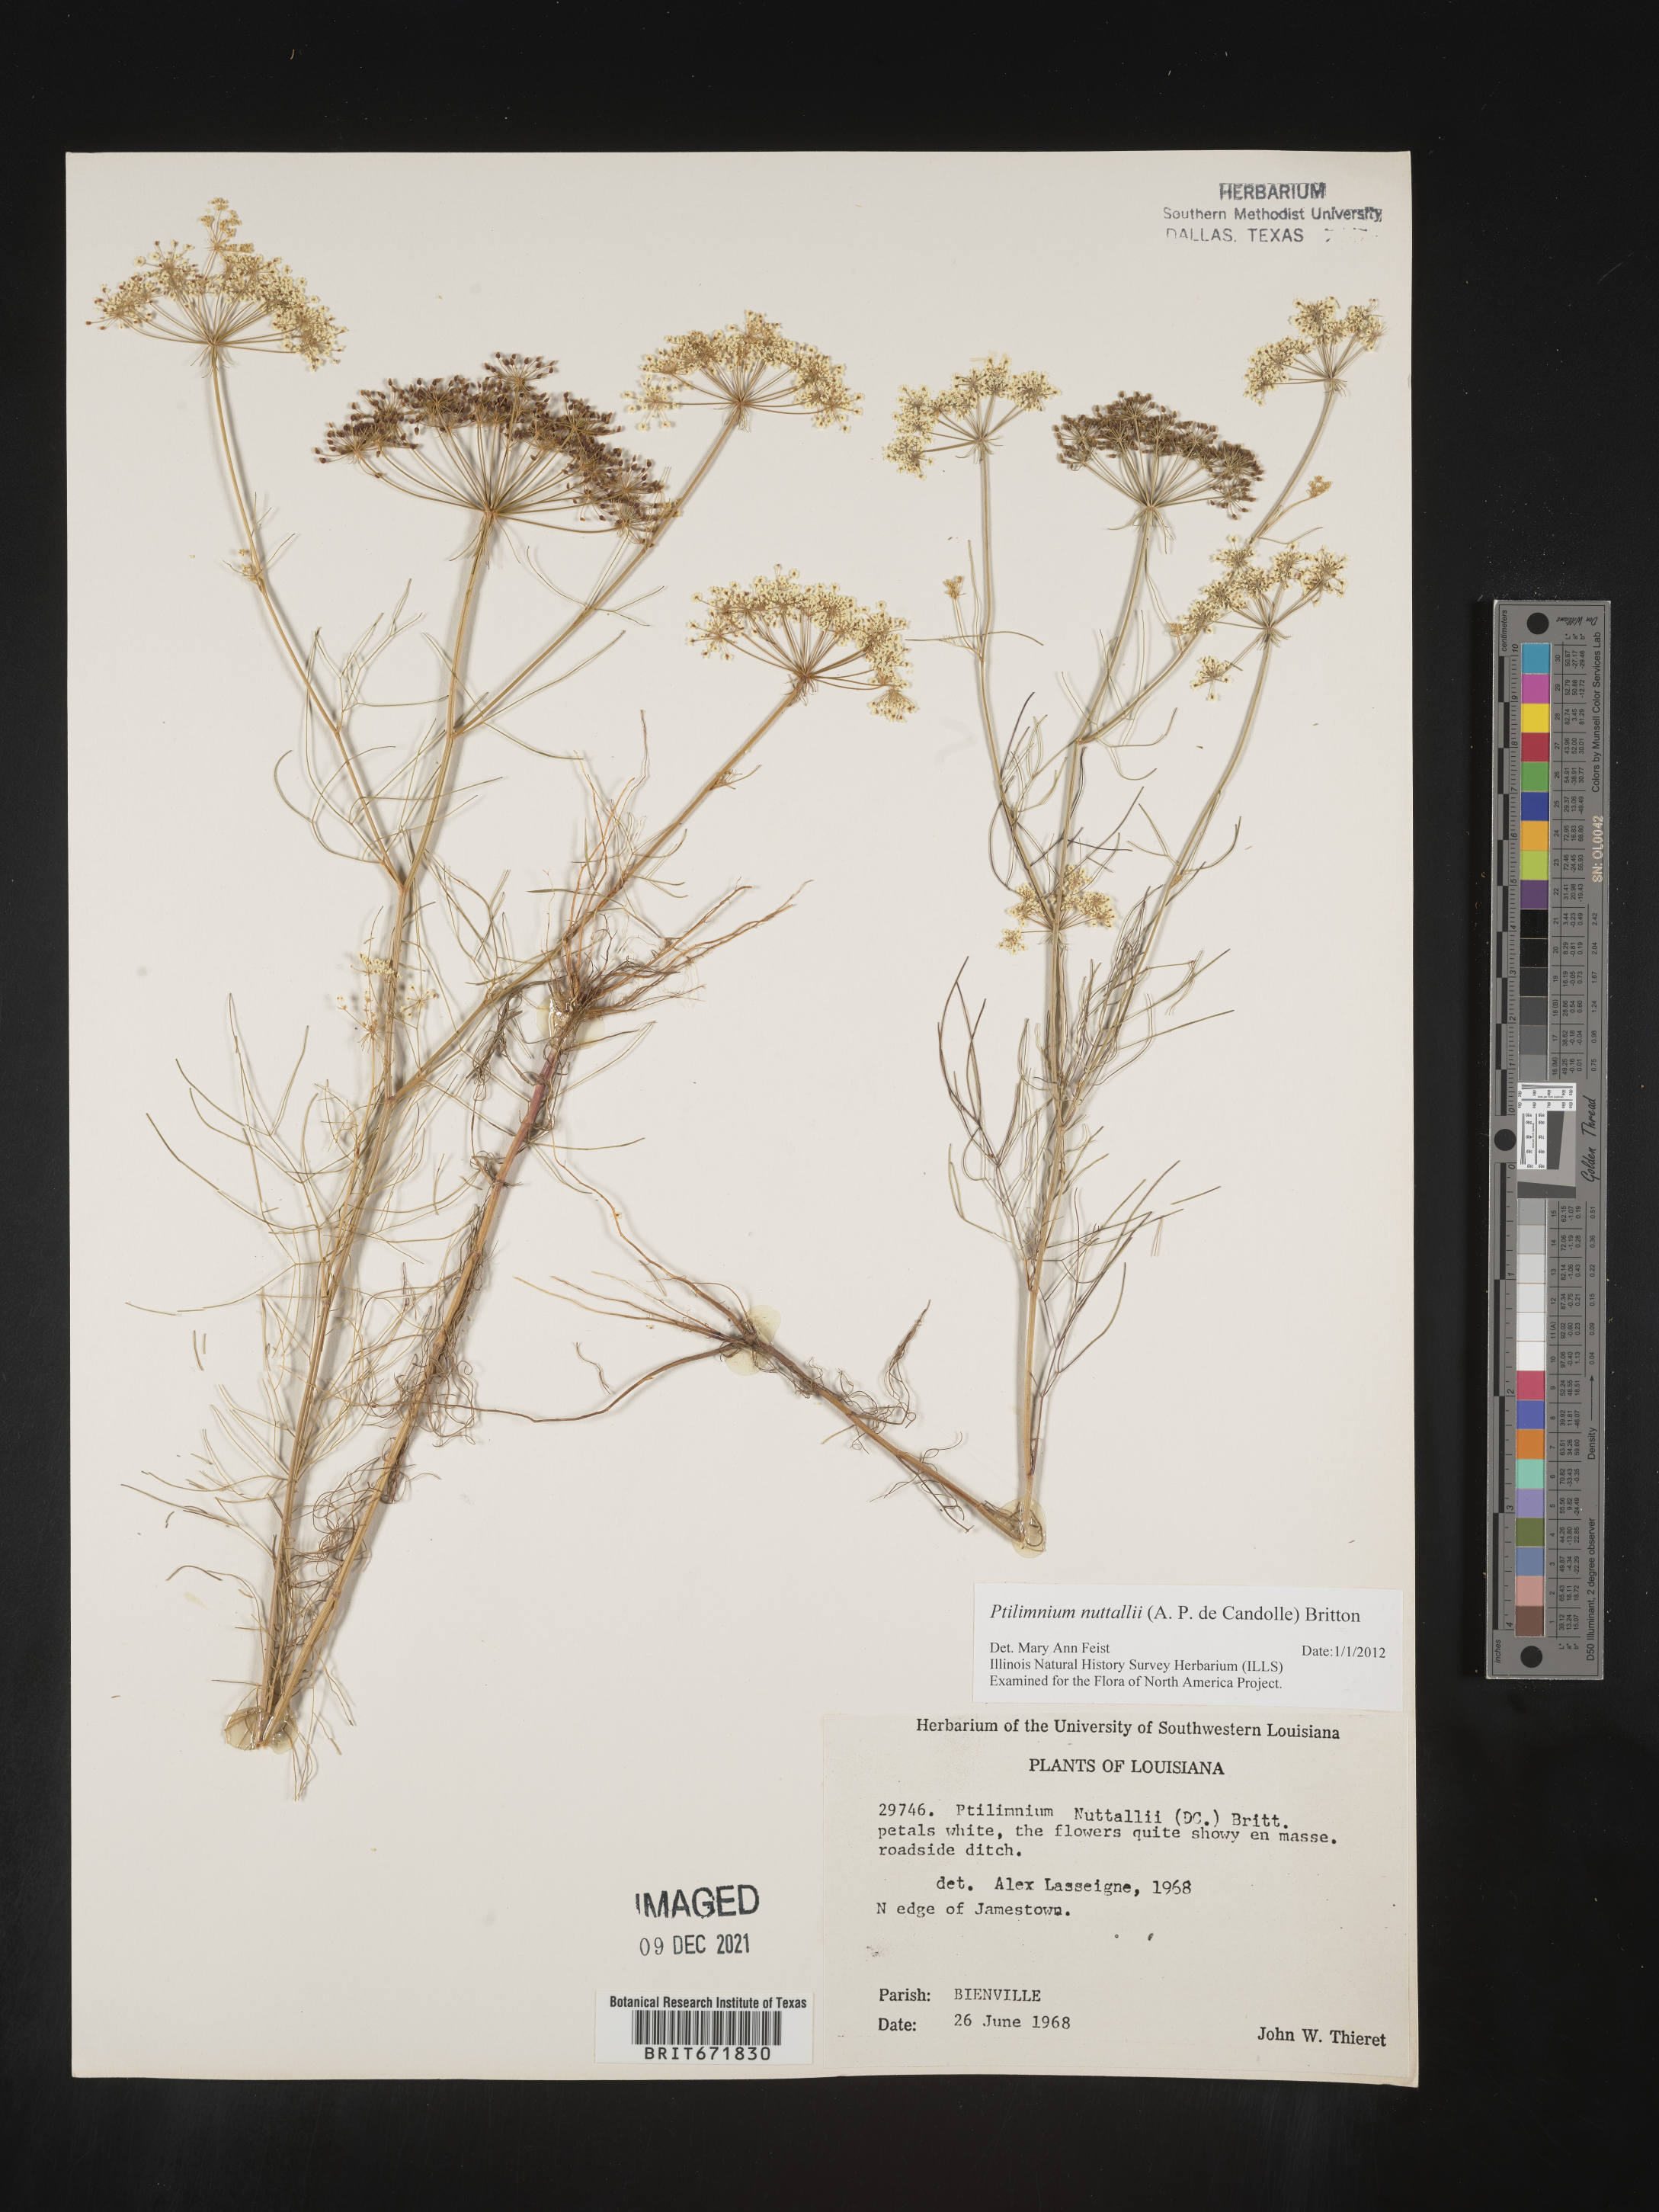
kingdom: Plantae
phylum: Tracheophyta
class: Magnoliopsida
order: Apiales
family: Apiaceae
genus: Ptilimnium
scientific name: Ptilimnium nuttallii
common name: Ozark bishop's-weed
